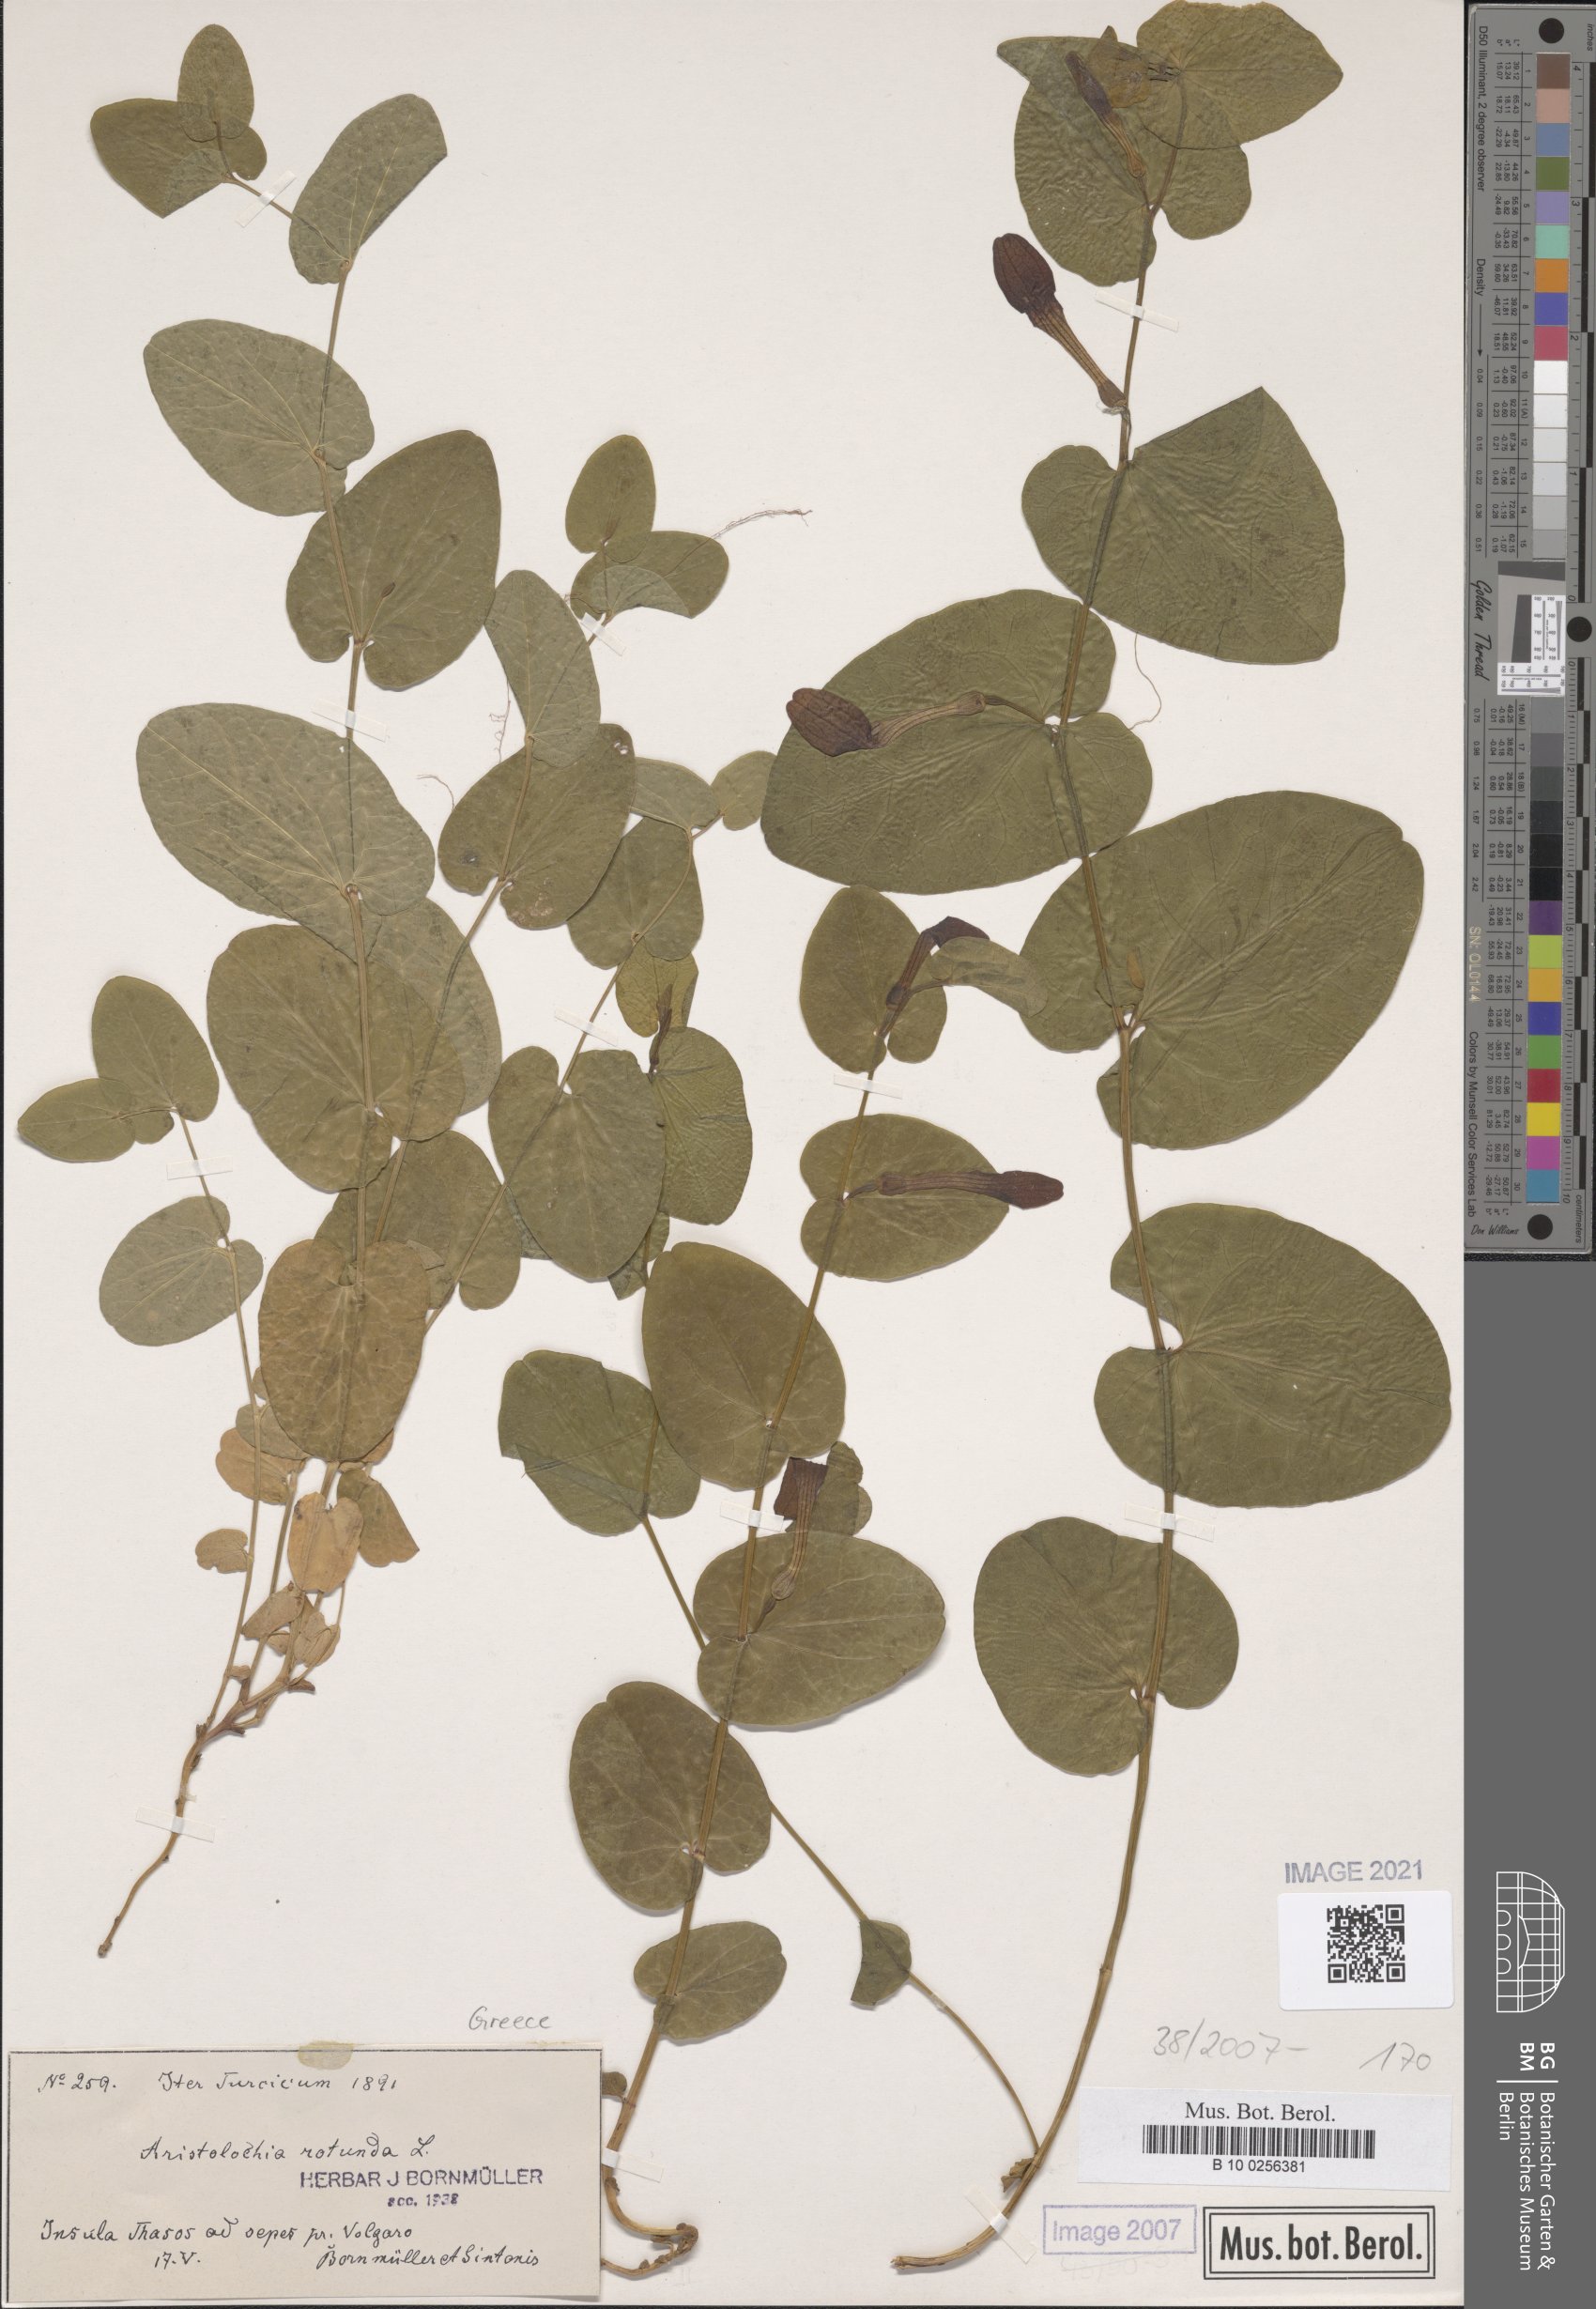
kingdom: Plantae
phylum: Tracheophyta
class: Magnoliopsida
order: Piperales
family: Aristolochiaceae
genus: Aristolochia
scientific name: Aristolochia rotunda
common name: Smearwort
